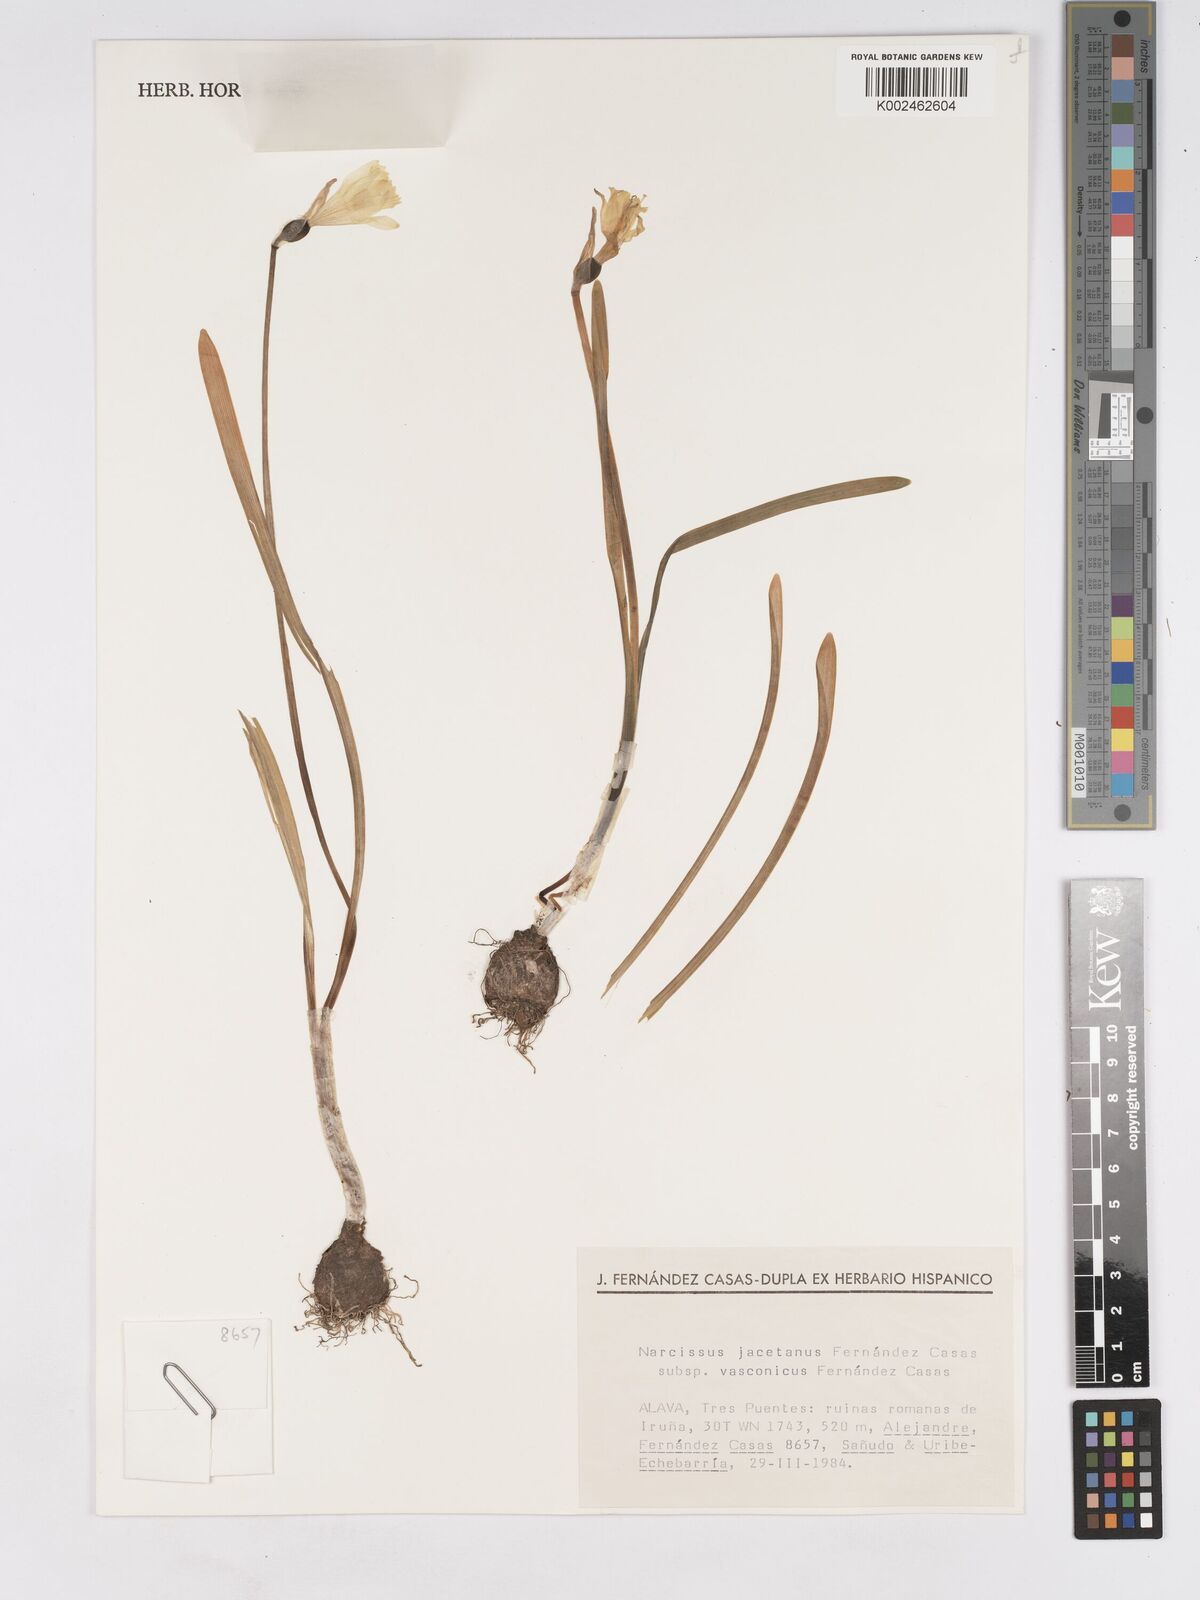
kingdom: Plantae
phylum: Tracheophyta
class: Liliopsida
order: Asparagales
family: Amaryllidaceae
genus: Narcissus
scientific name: Narcissus minor
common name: Lesser daffodil
